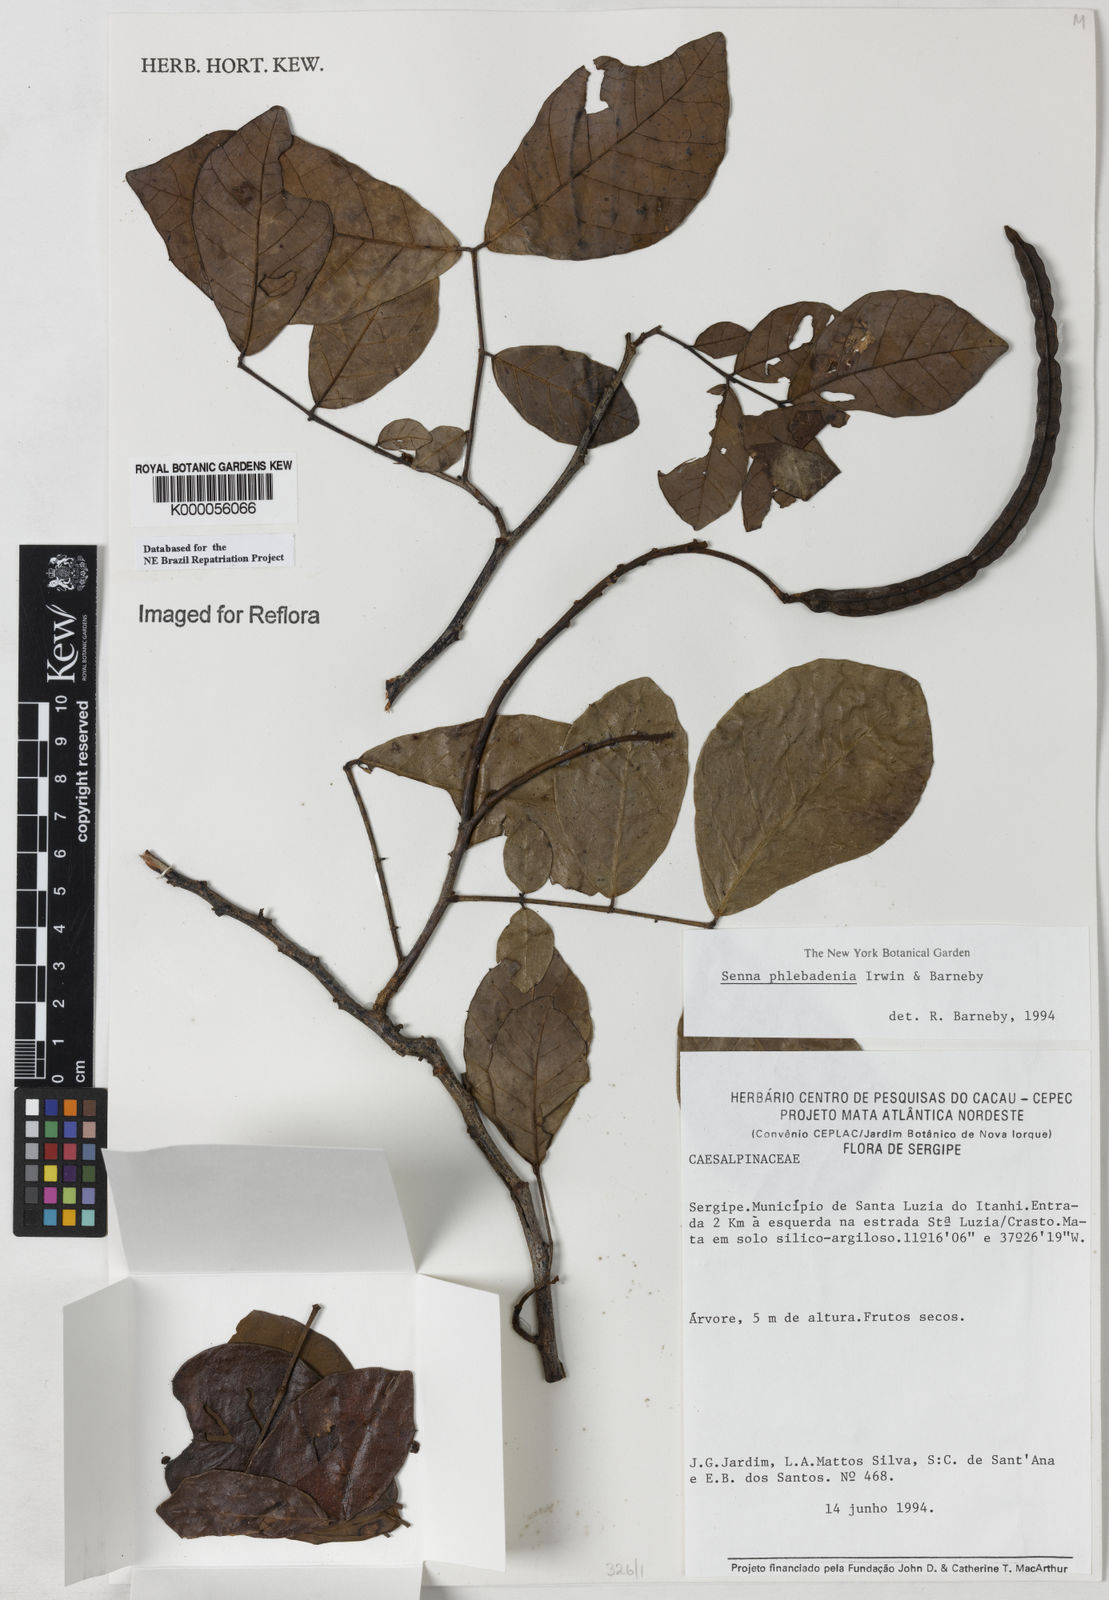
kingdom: Plantae
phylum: Tracheophyta
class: Magnoliopsida
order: Fabales
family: Fabaceae
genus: Senna
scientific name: Senna phlebadenia
